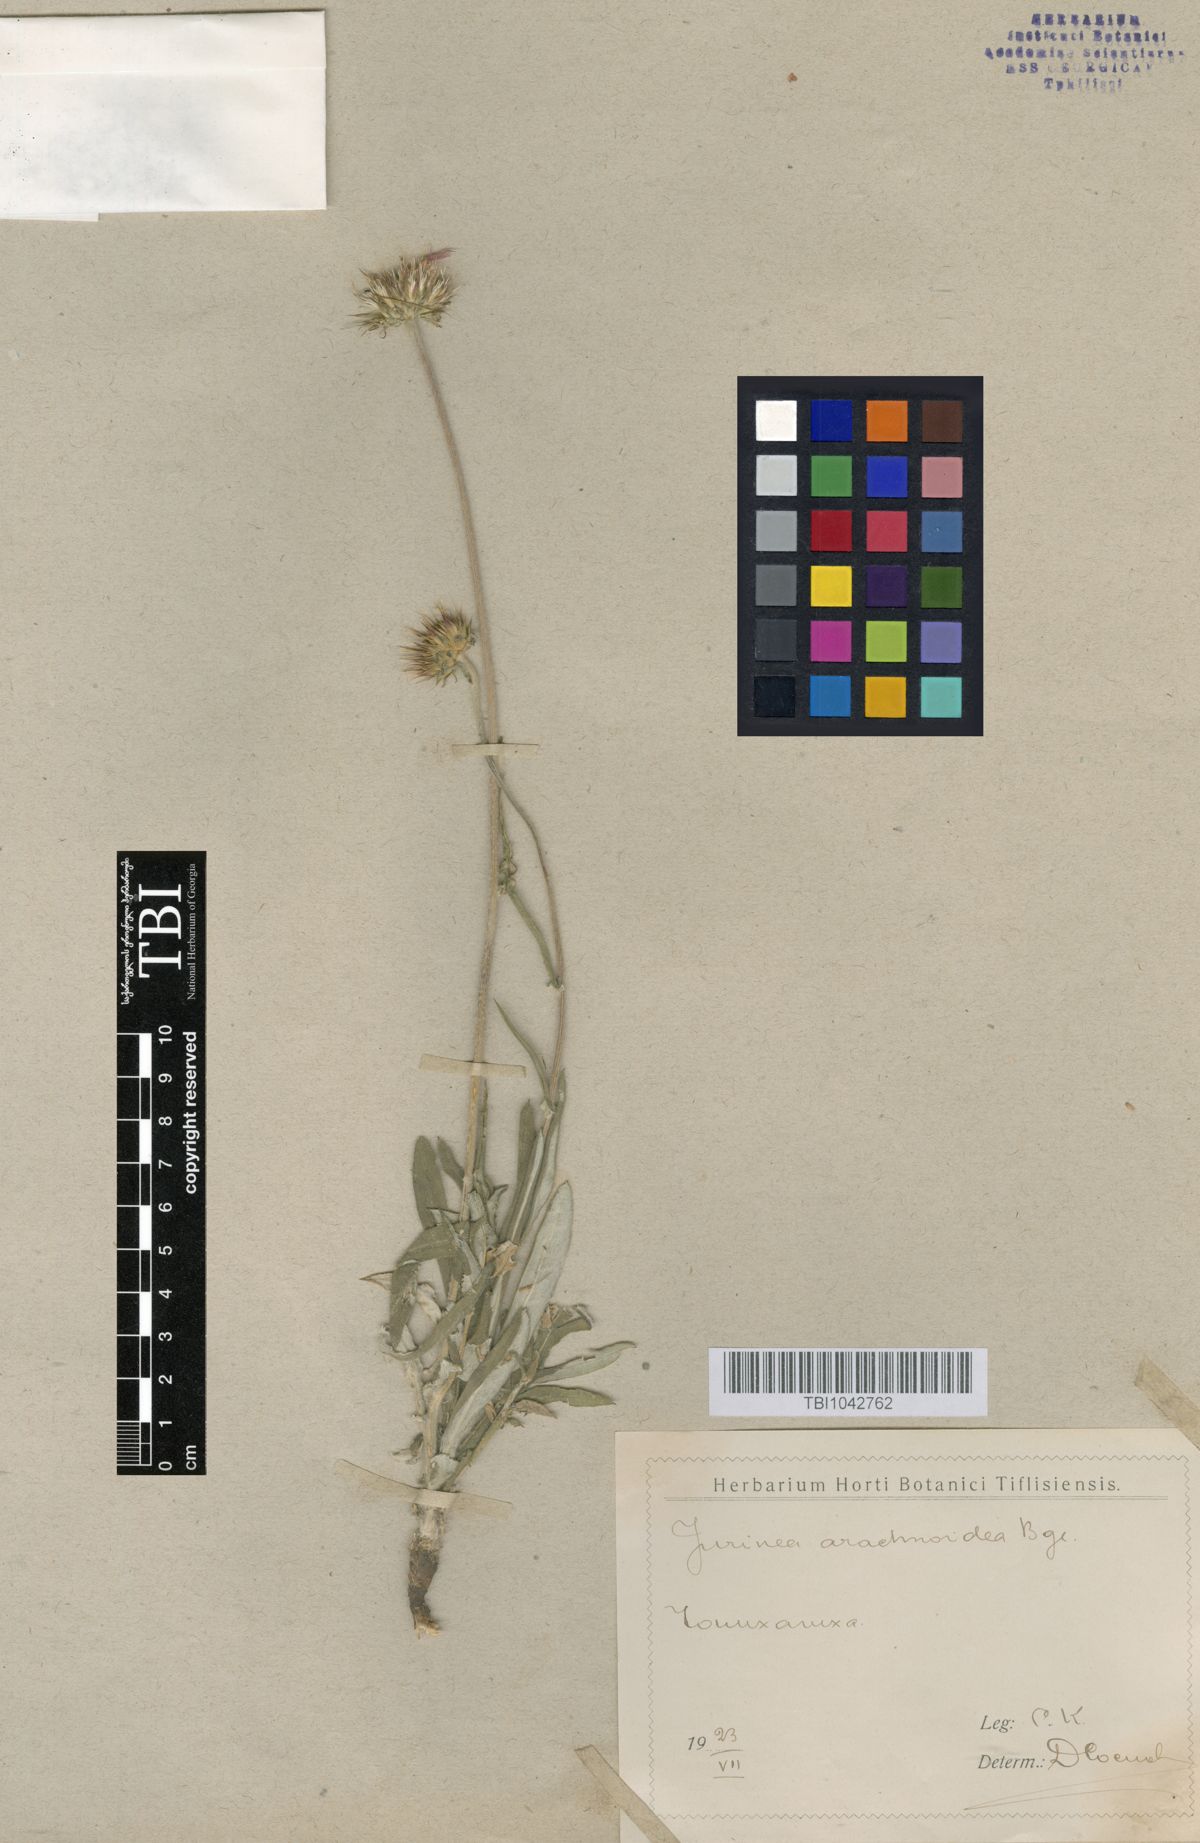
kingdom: Plantae
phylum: Tracheophyta
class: Magnoliopsida
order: Asterales
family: Asteraceae
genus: Jurinea
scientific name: Jurinea blanda
